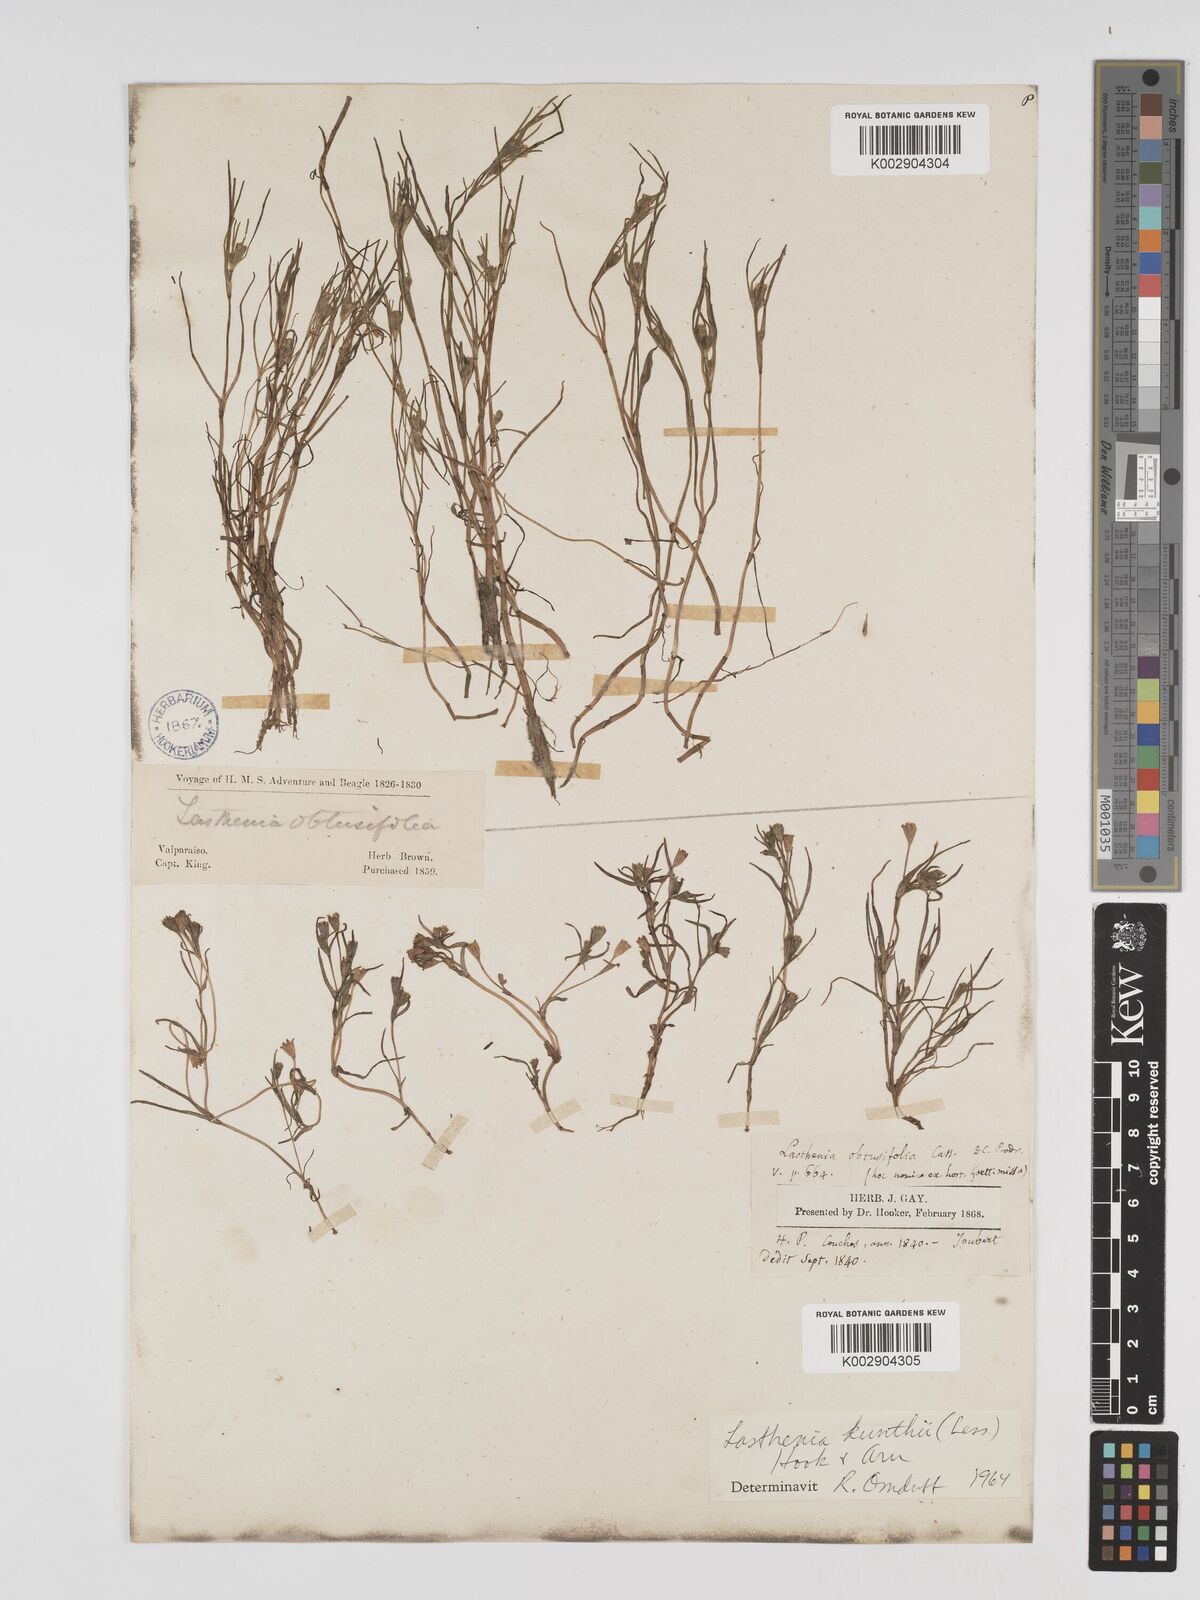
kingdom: Plantae
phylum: Tracheophyta
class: Magnoliopsida
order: Asterales
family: Asteraceae
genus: Lasthenia
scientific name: Lasthenia kunthii
